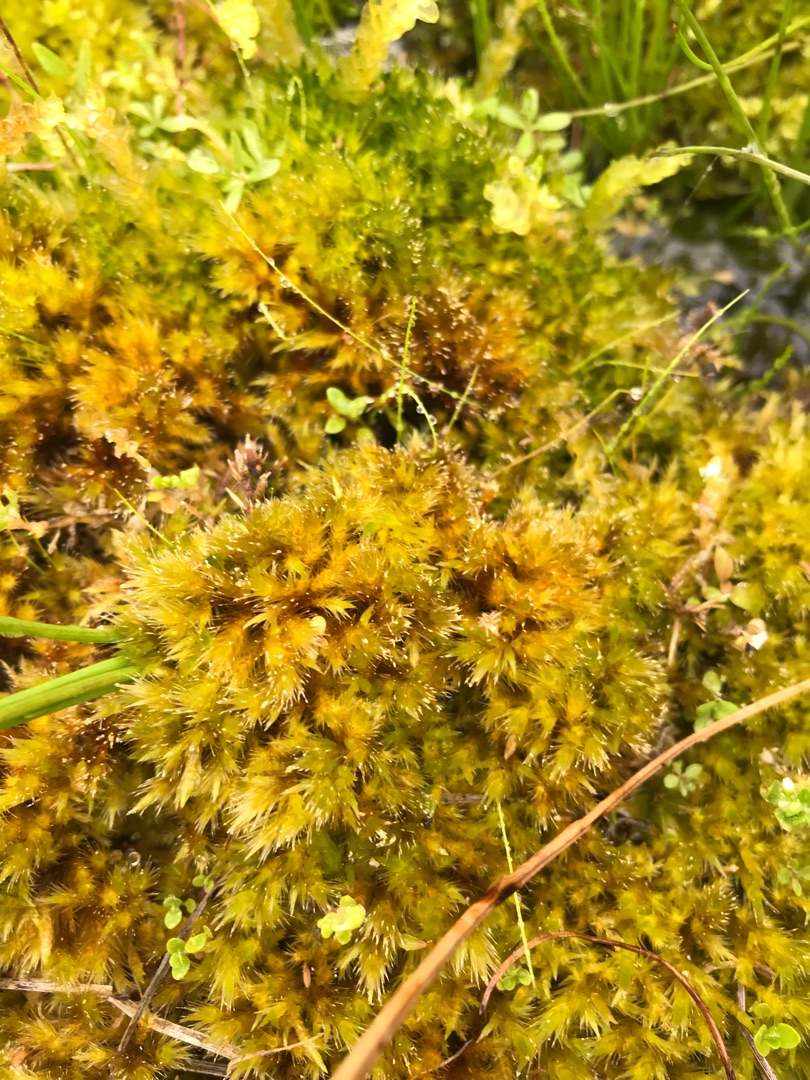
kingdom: Plantae
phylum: Bryophyta
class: Bryopsida
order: Hypnales
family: Amblystegiaceae
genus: Tomentypnum
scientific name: Tomentypnum nitens
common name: Glinsende kærmos
